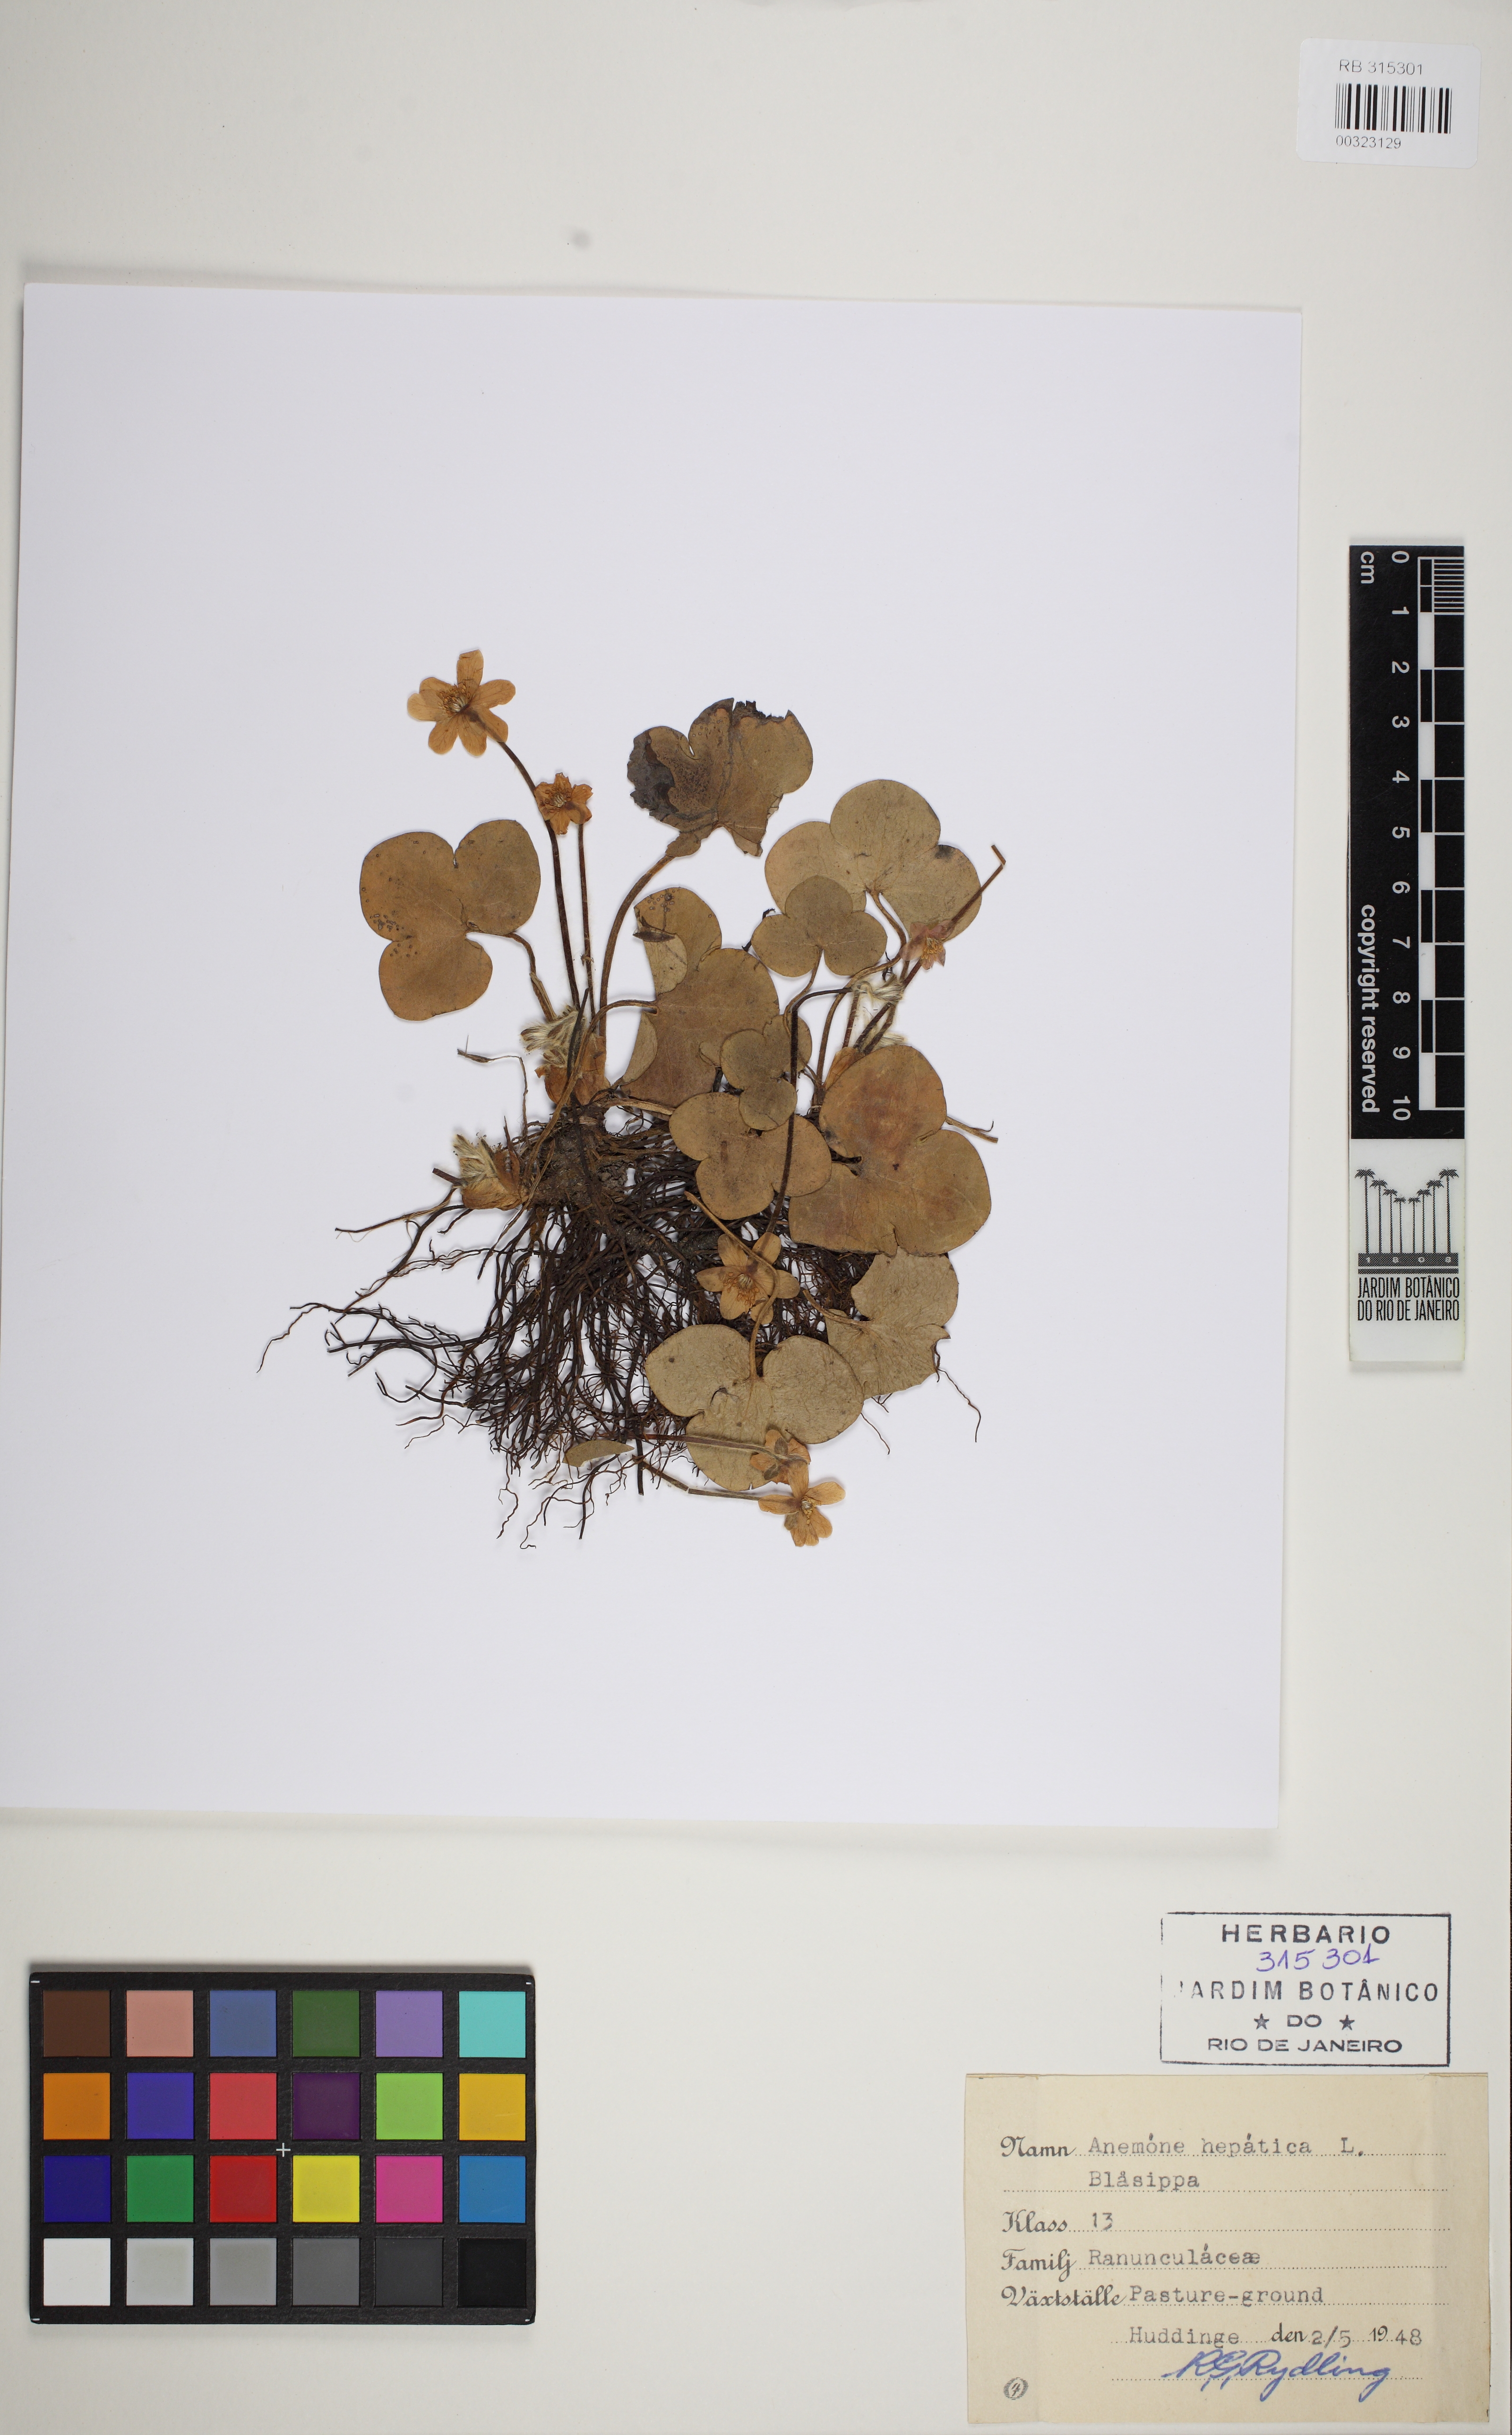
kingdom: Plantae
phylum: Tracheophyta
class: Magnoliopsida
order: Ranunculales
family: Ranunculaceae
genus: Hepatica
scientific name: Hepatica nobilis
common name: Liverleaf
